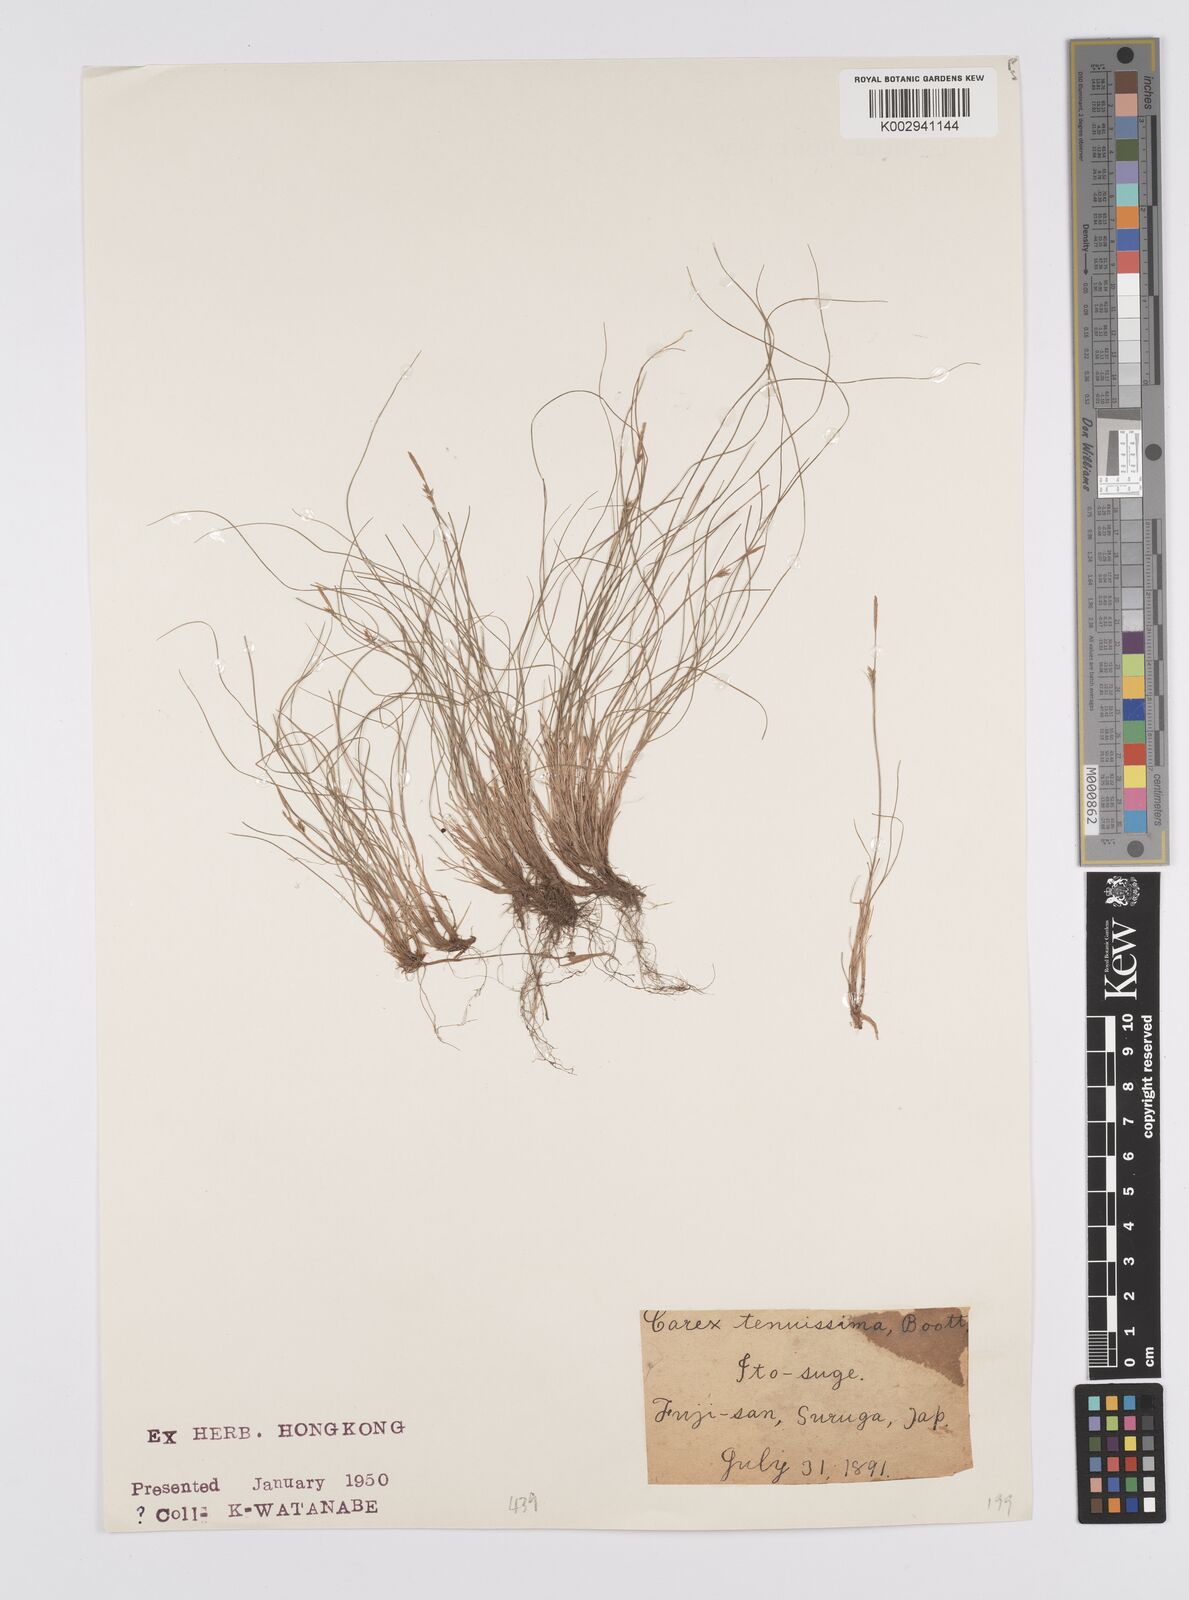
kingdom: Plantae
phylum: Tracheophyta
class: Liliopsida
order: Poales
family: Cyperaceae
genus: Carex
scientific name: Carex pisiformis
